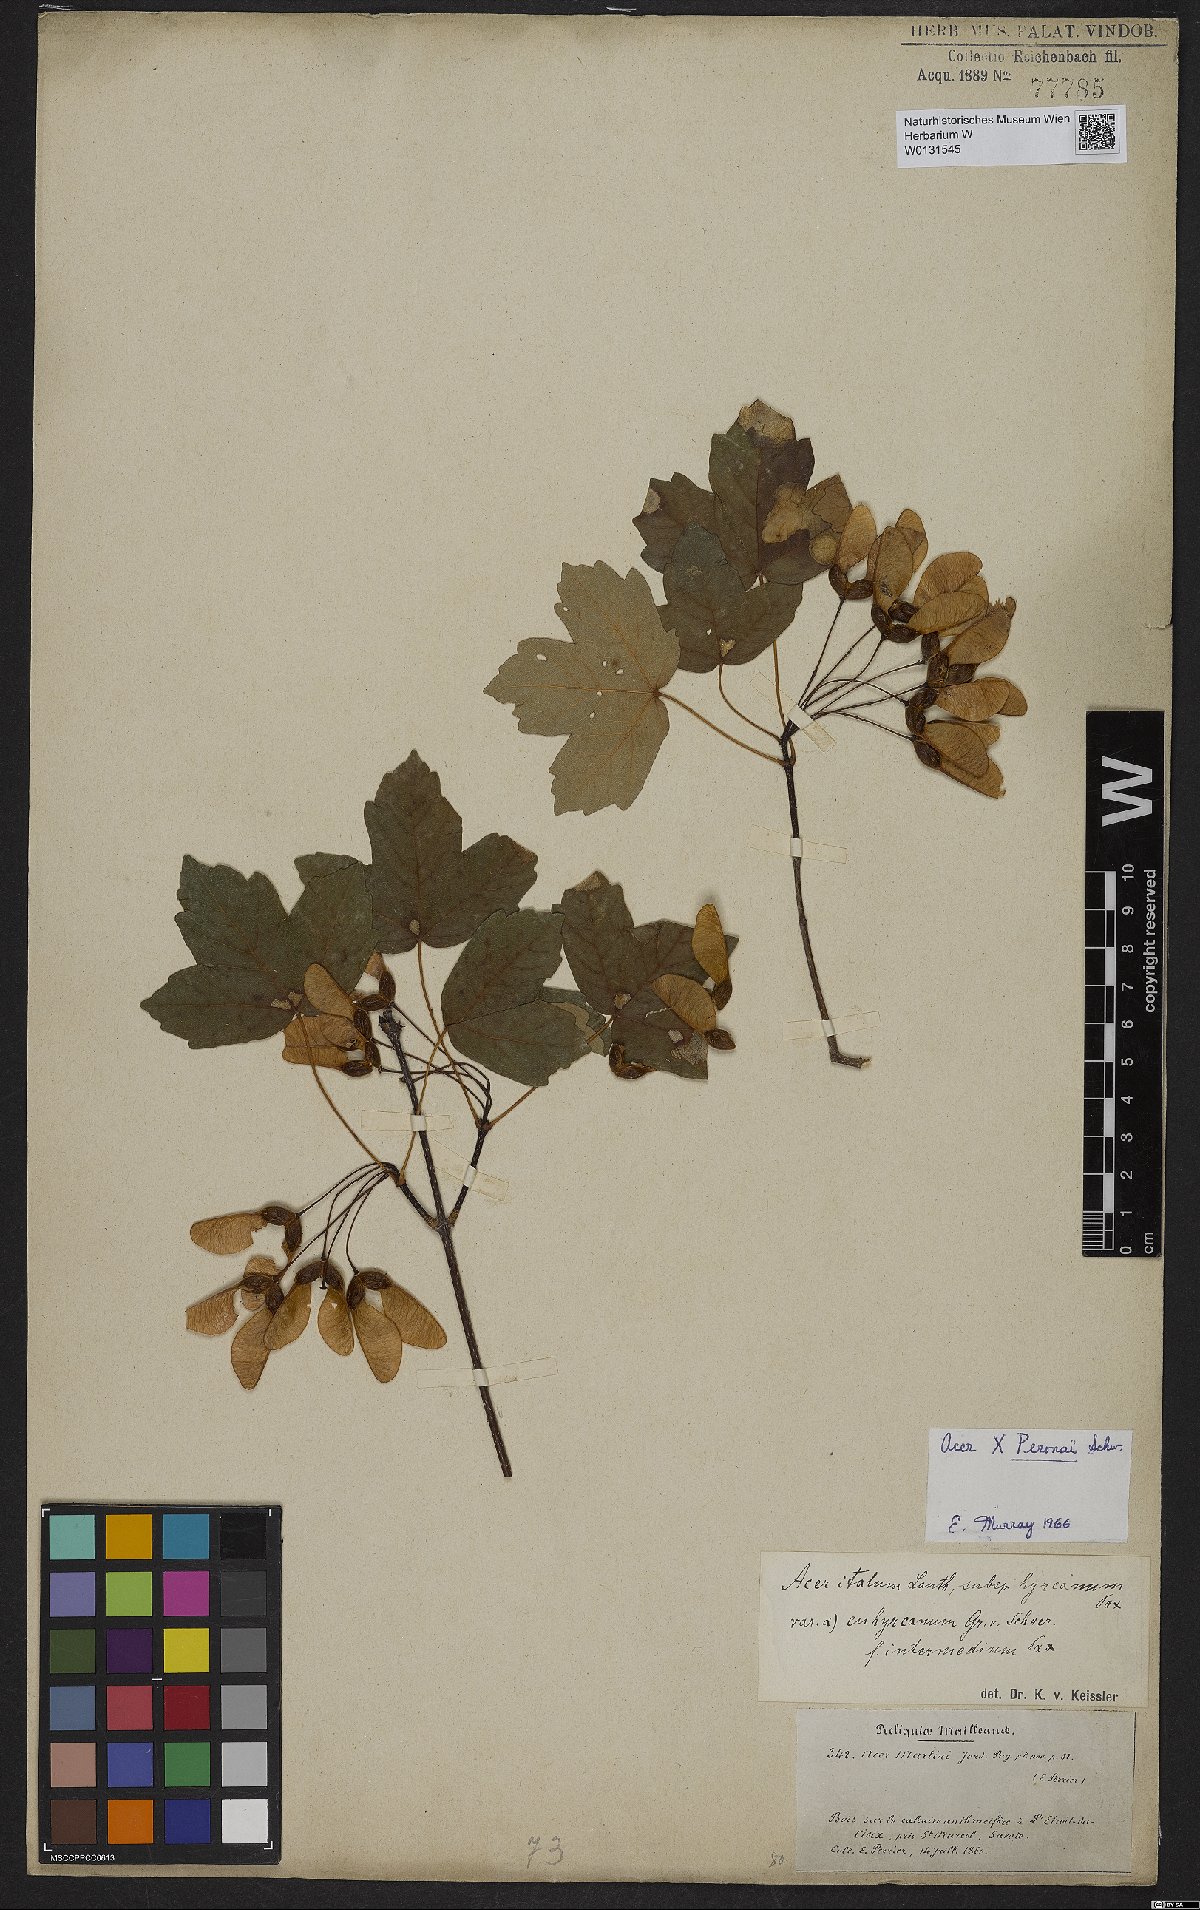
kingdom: Plantae
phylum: Tracheophyta
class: Magnoliopsida
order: Sapindales
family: Aceraceae
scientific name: Aceraceae
